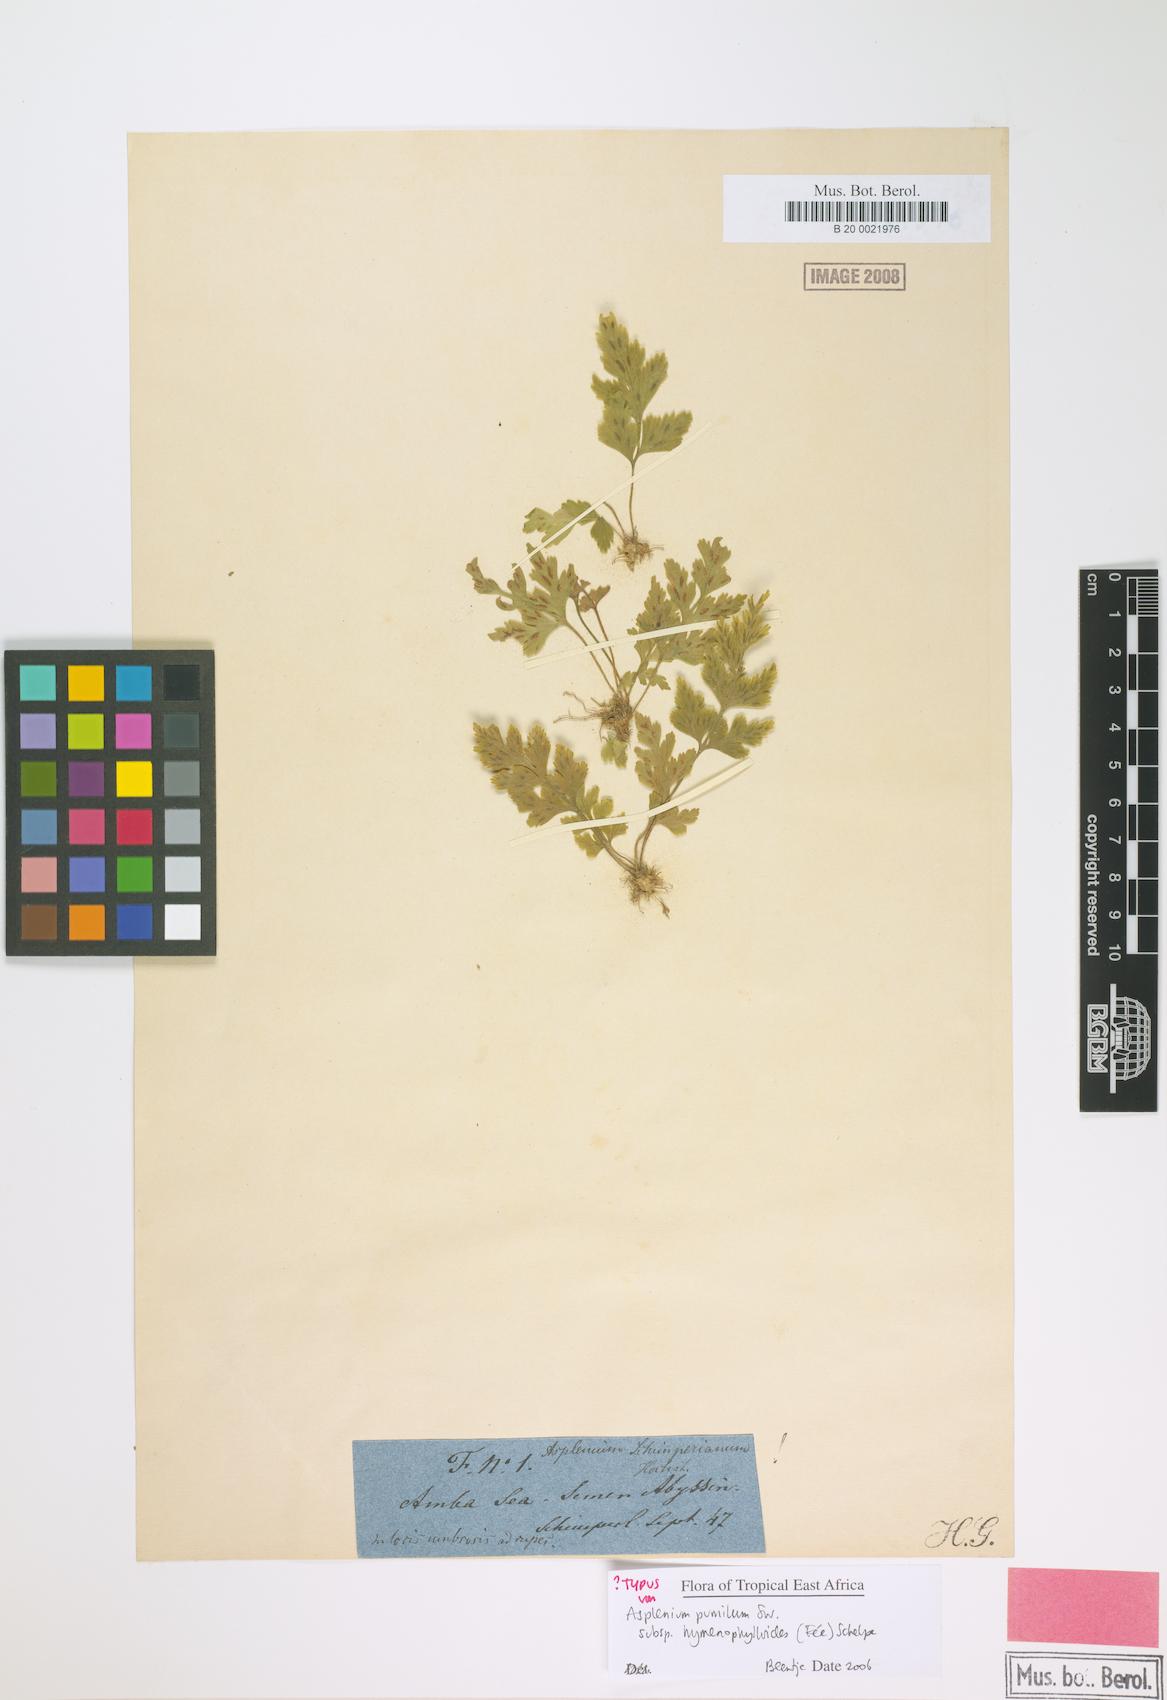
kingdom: Plantae
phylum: Tracheophyta
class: Polypodiopsida
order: Polypodiales
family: Aspleniaceae
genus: Asplenium
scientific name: Asplenium eylesii
